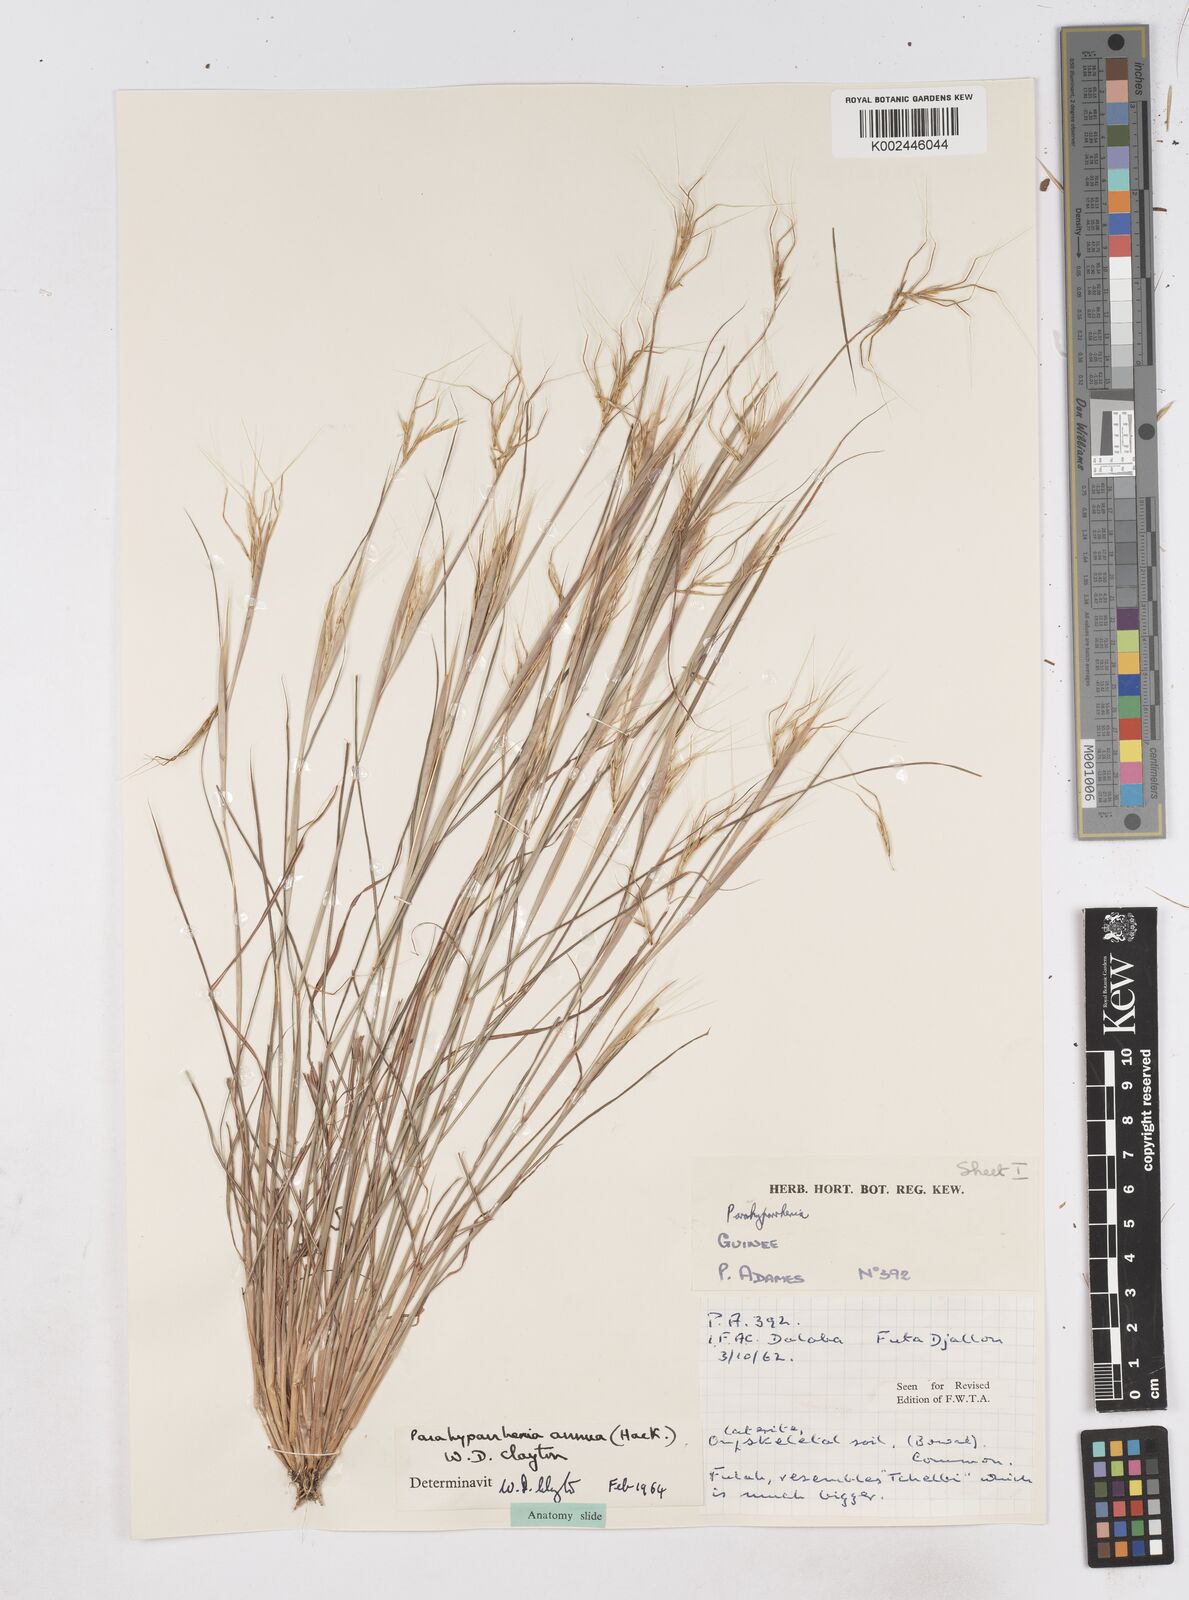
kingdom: Plantae
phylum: Tracheophyta
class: Liliopsida
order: Poales
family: Poaceae
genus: Parahyparrhenia
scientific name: Parahyparrhenia annua
